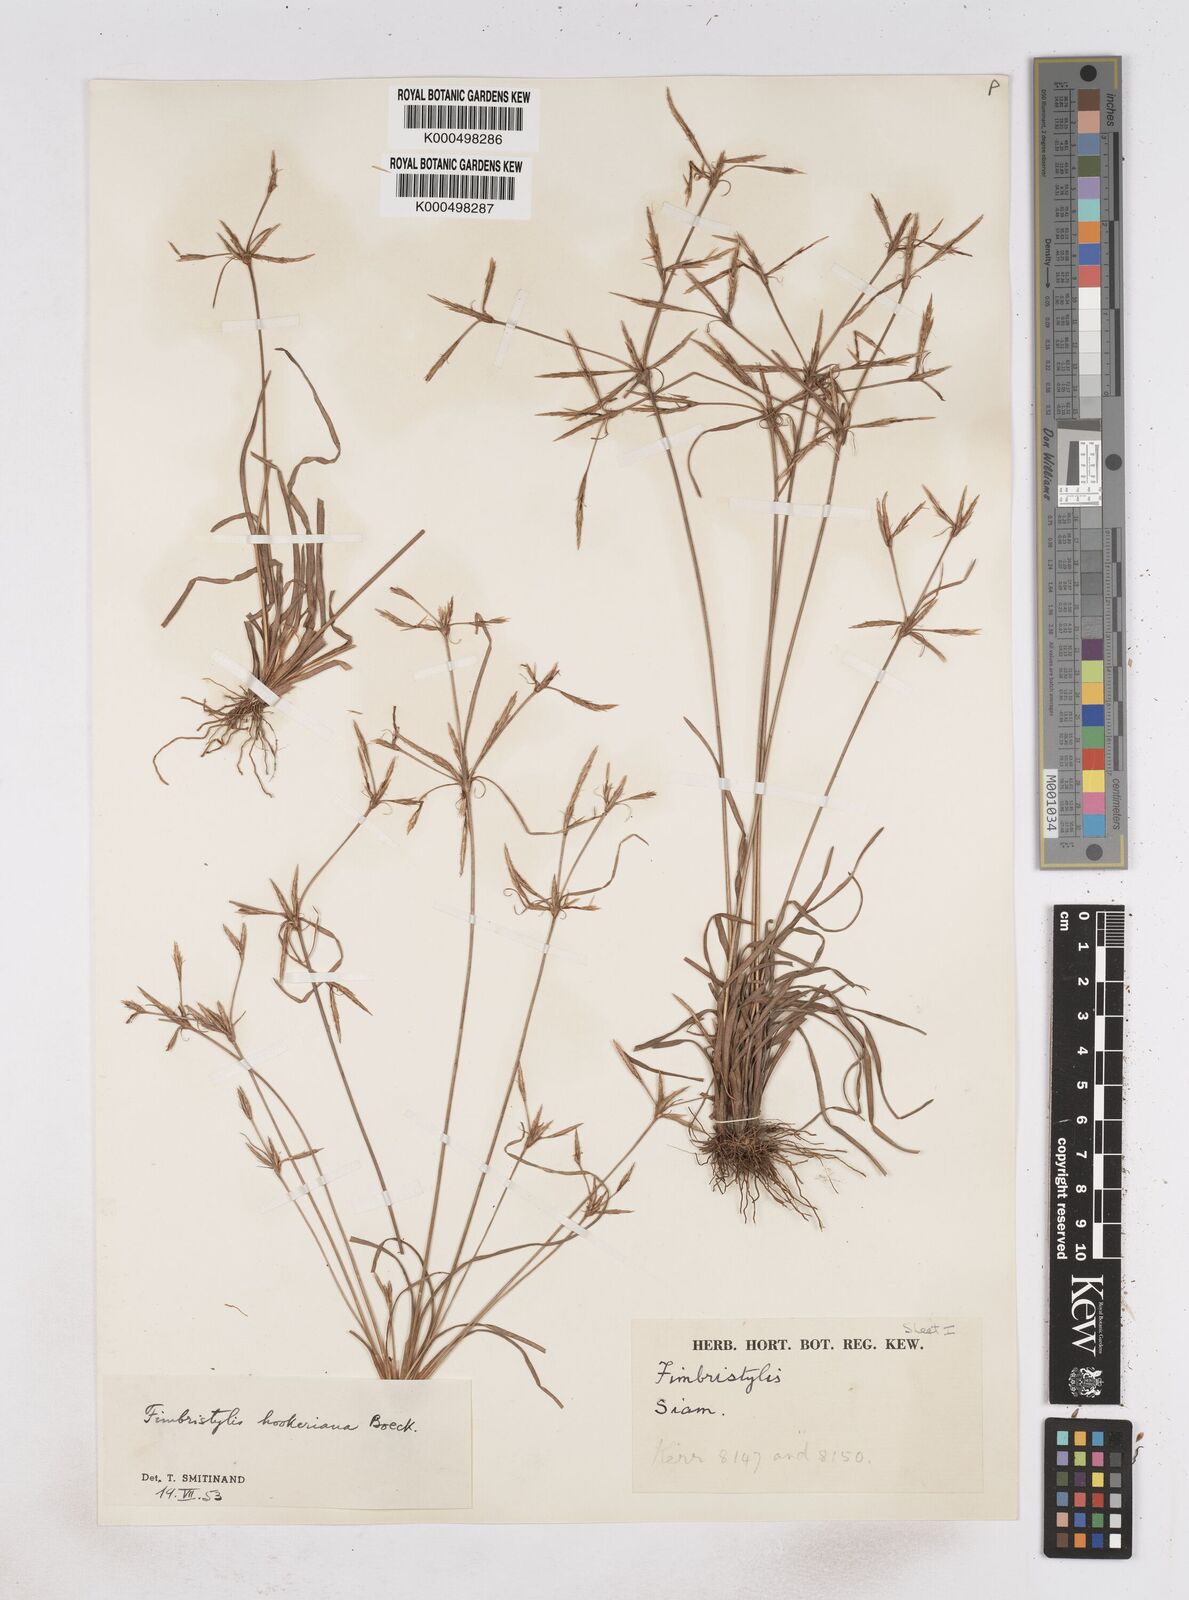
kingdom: Plantae
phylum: Tracheophyta
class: Liliopsida
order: Poales
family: Cyperaceae
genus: Fimbristylis
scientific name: Fimbristylis hookeriana
